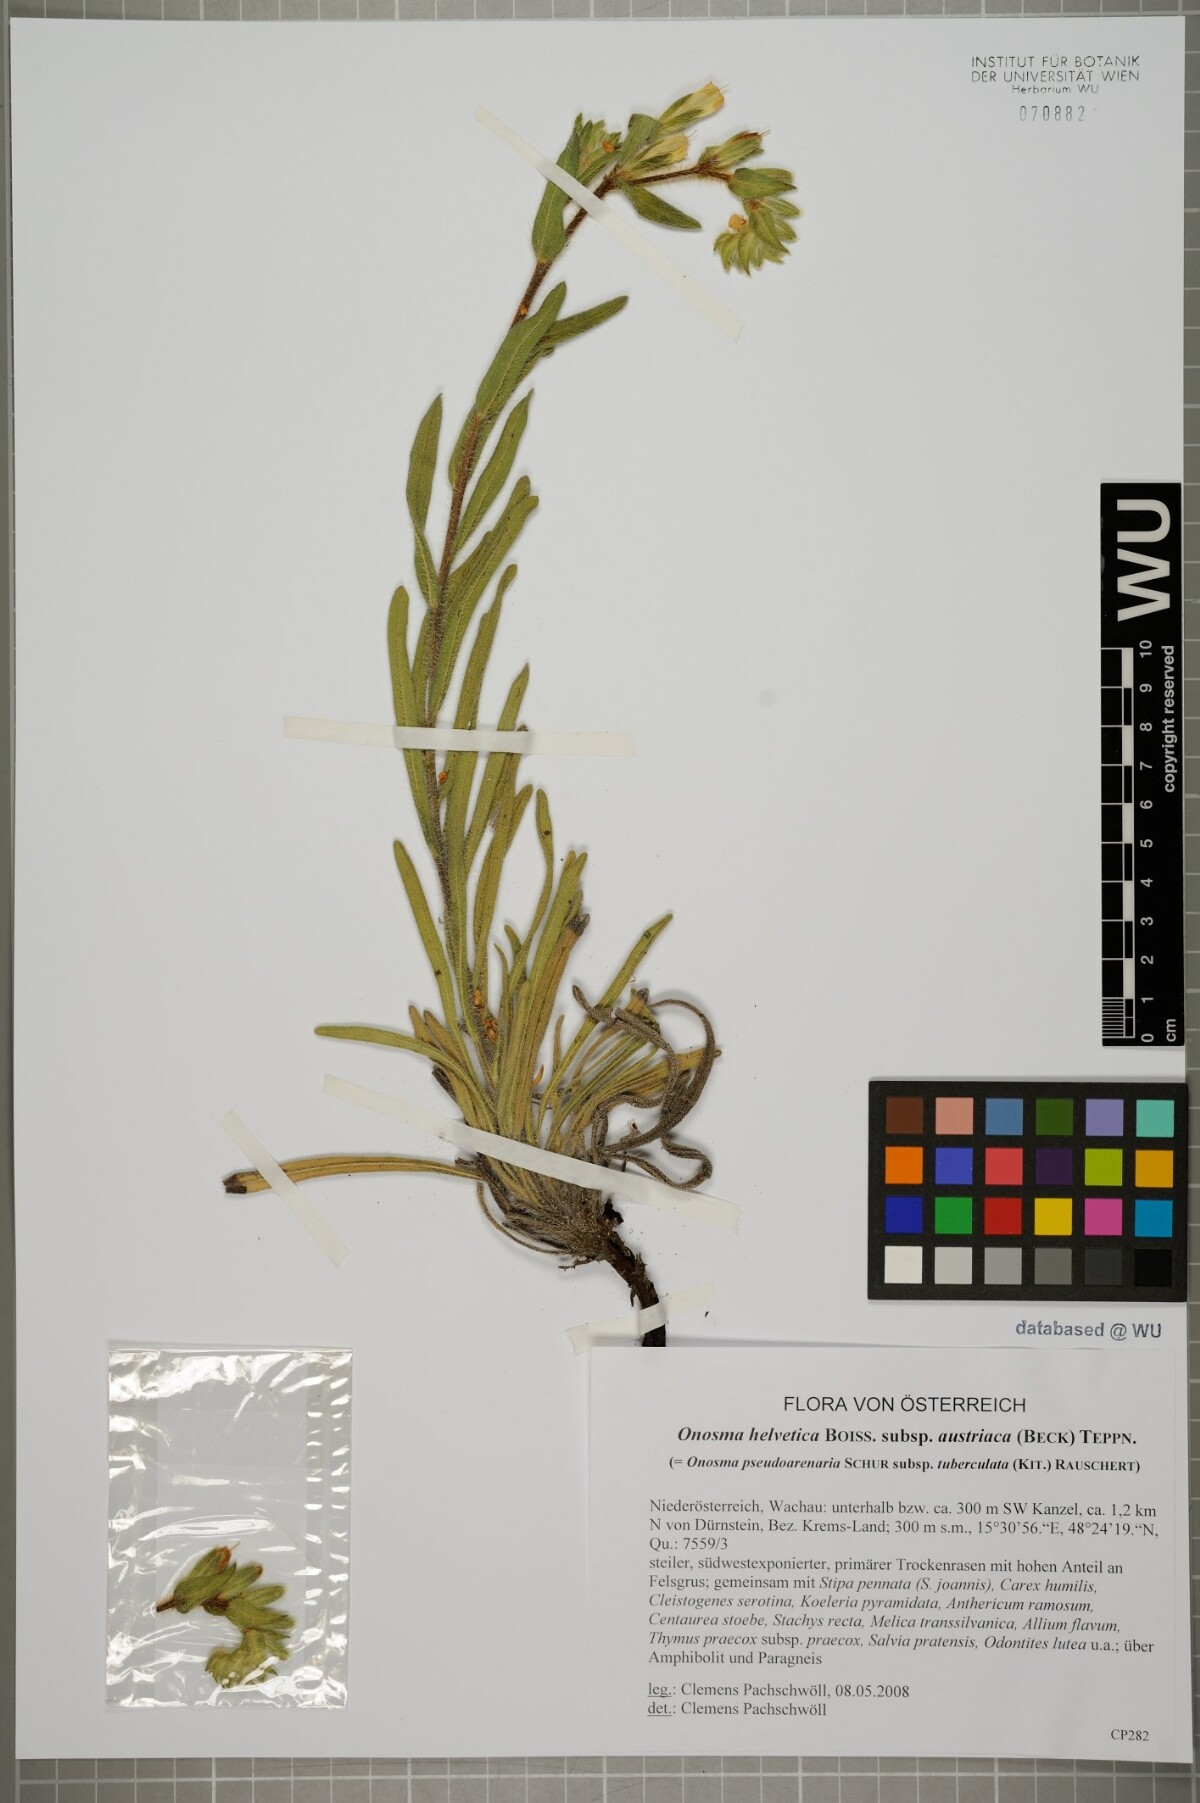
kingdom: Plantae
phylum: Tracheophyta
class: Magnoliopsida
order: Boraginales
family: Boraginaceae
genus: Onosma
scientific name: Onosma arenaria
